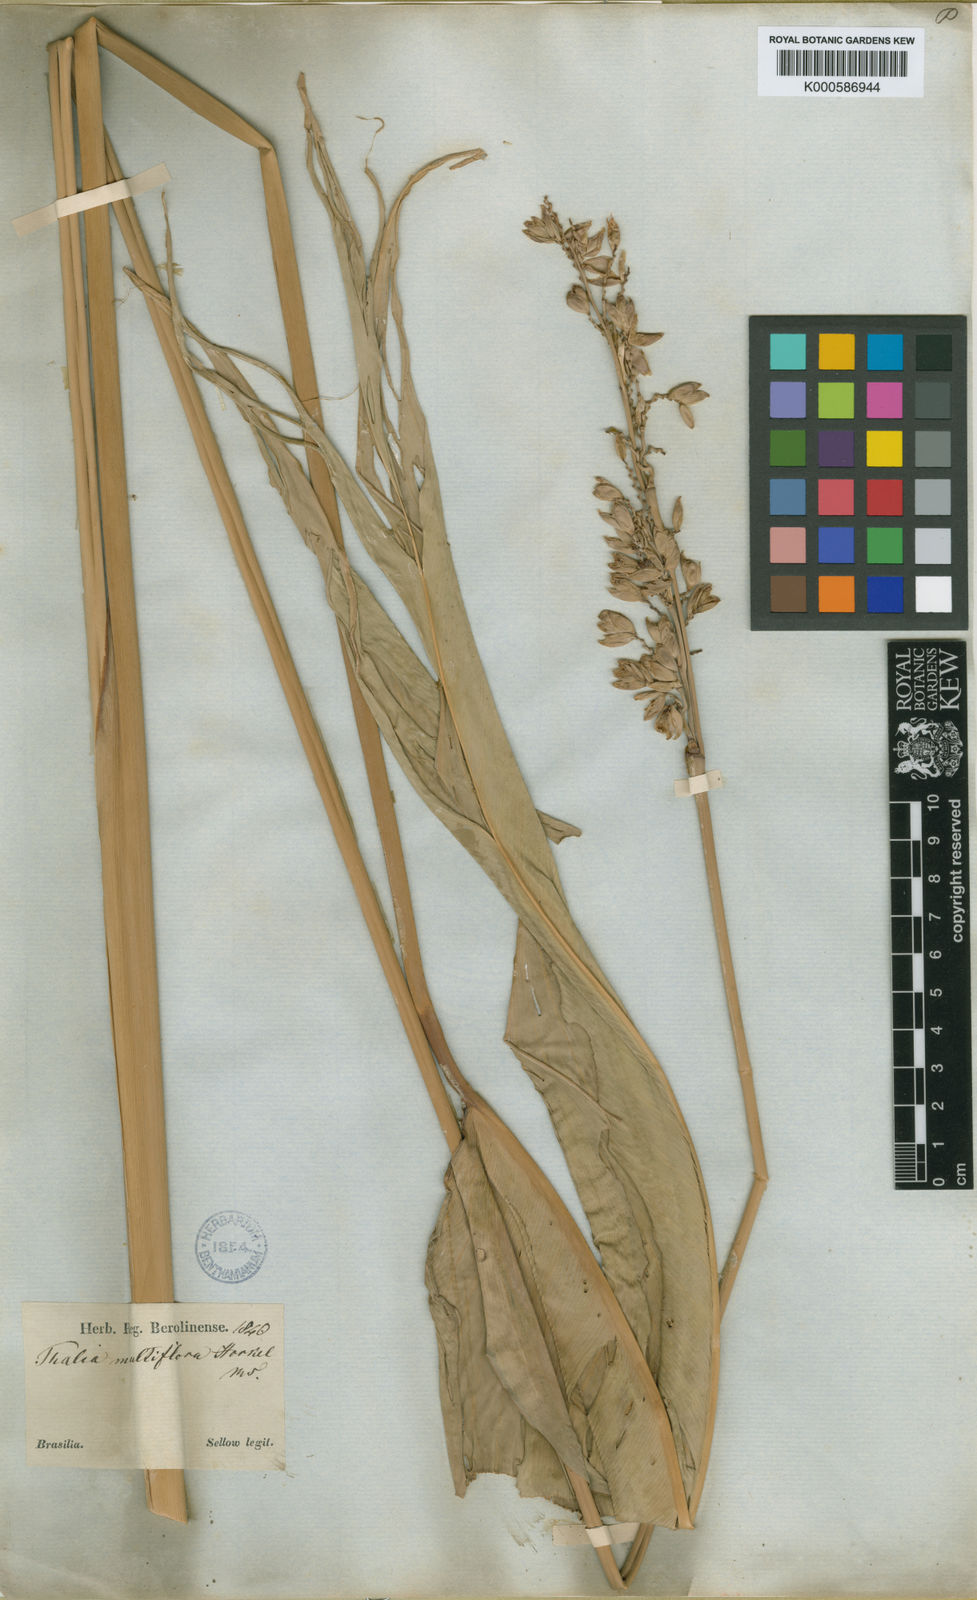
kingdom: Plantae
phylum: Tracheophyta
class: Liliopsida
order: Zingiberales
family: Marantaceae
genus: Thalia
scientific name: Thalia
